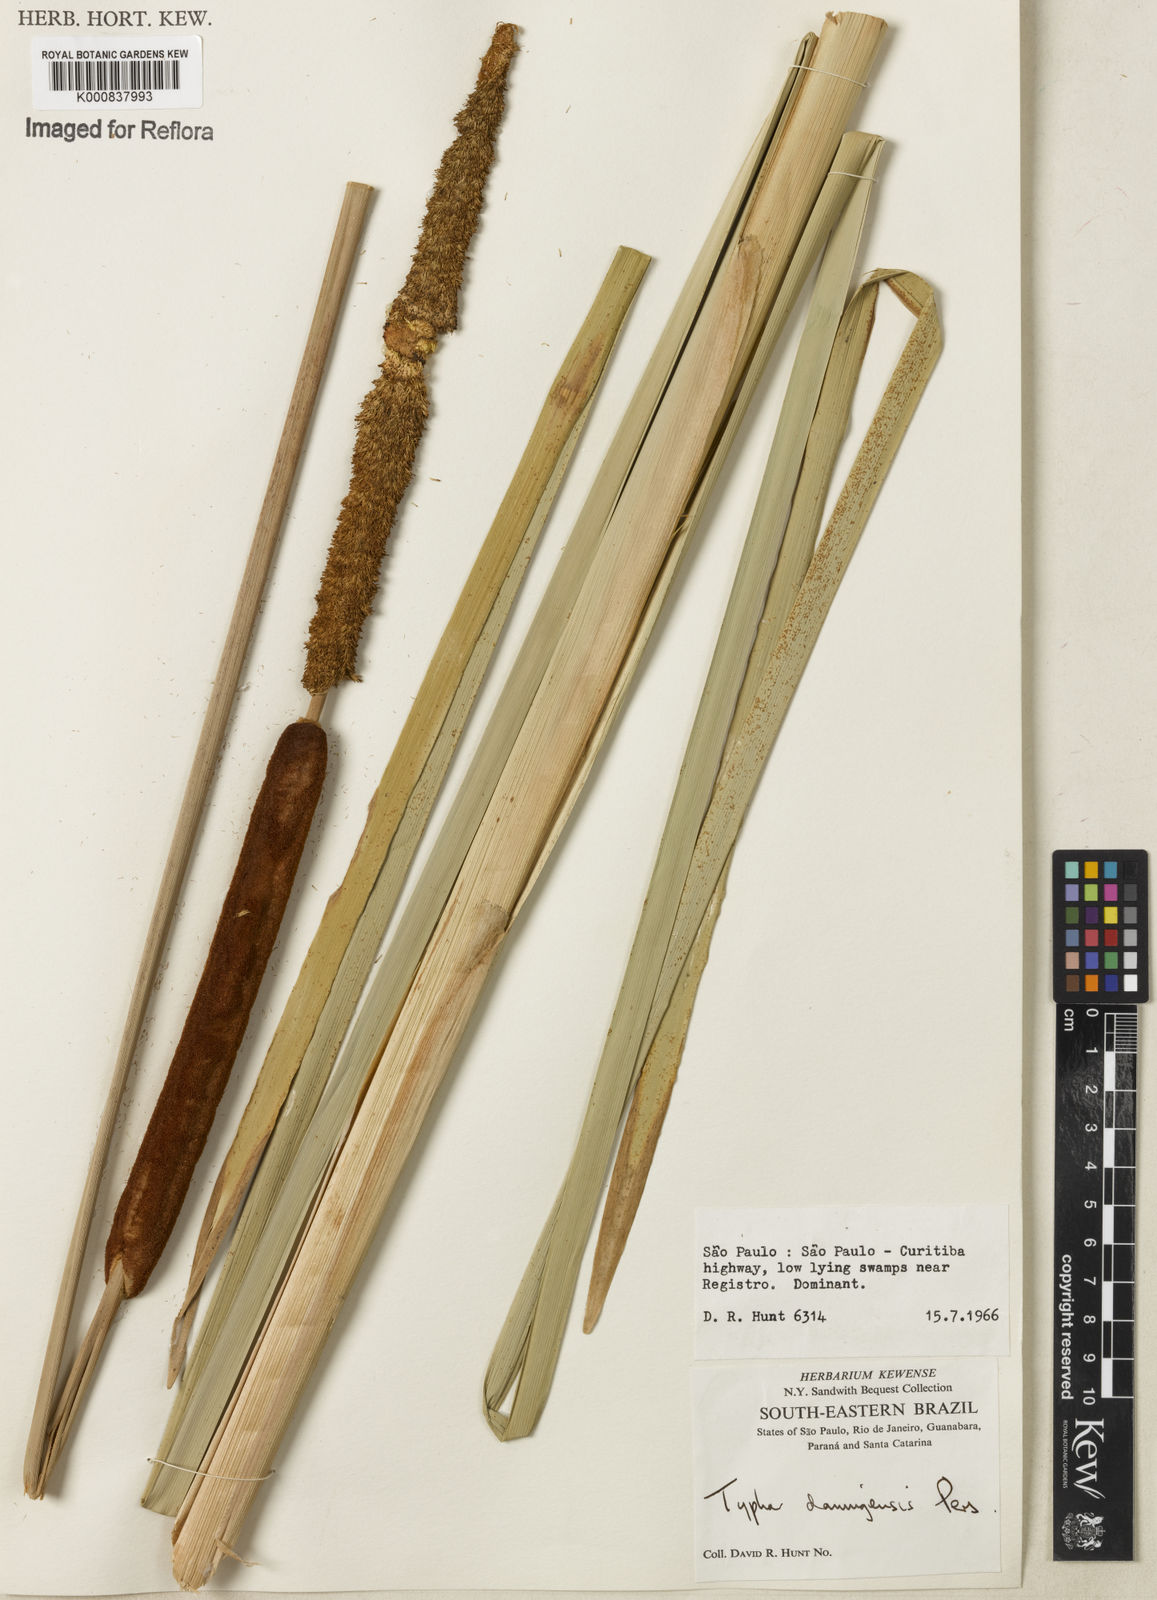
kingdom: Plantae
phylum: Tracheophyta
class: Liliopsida
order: Poales
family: Typhaceae
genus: Typha
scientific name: Typha
